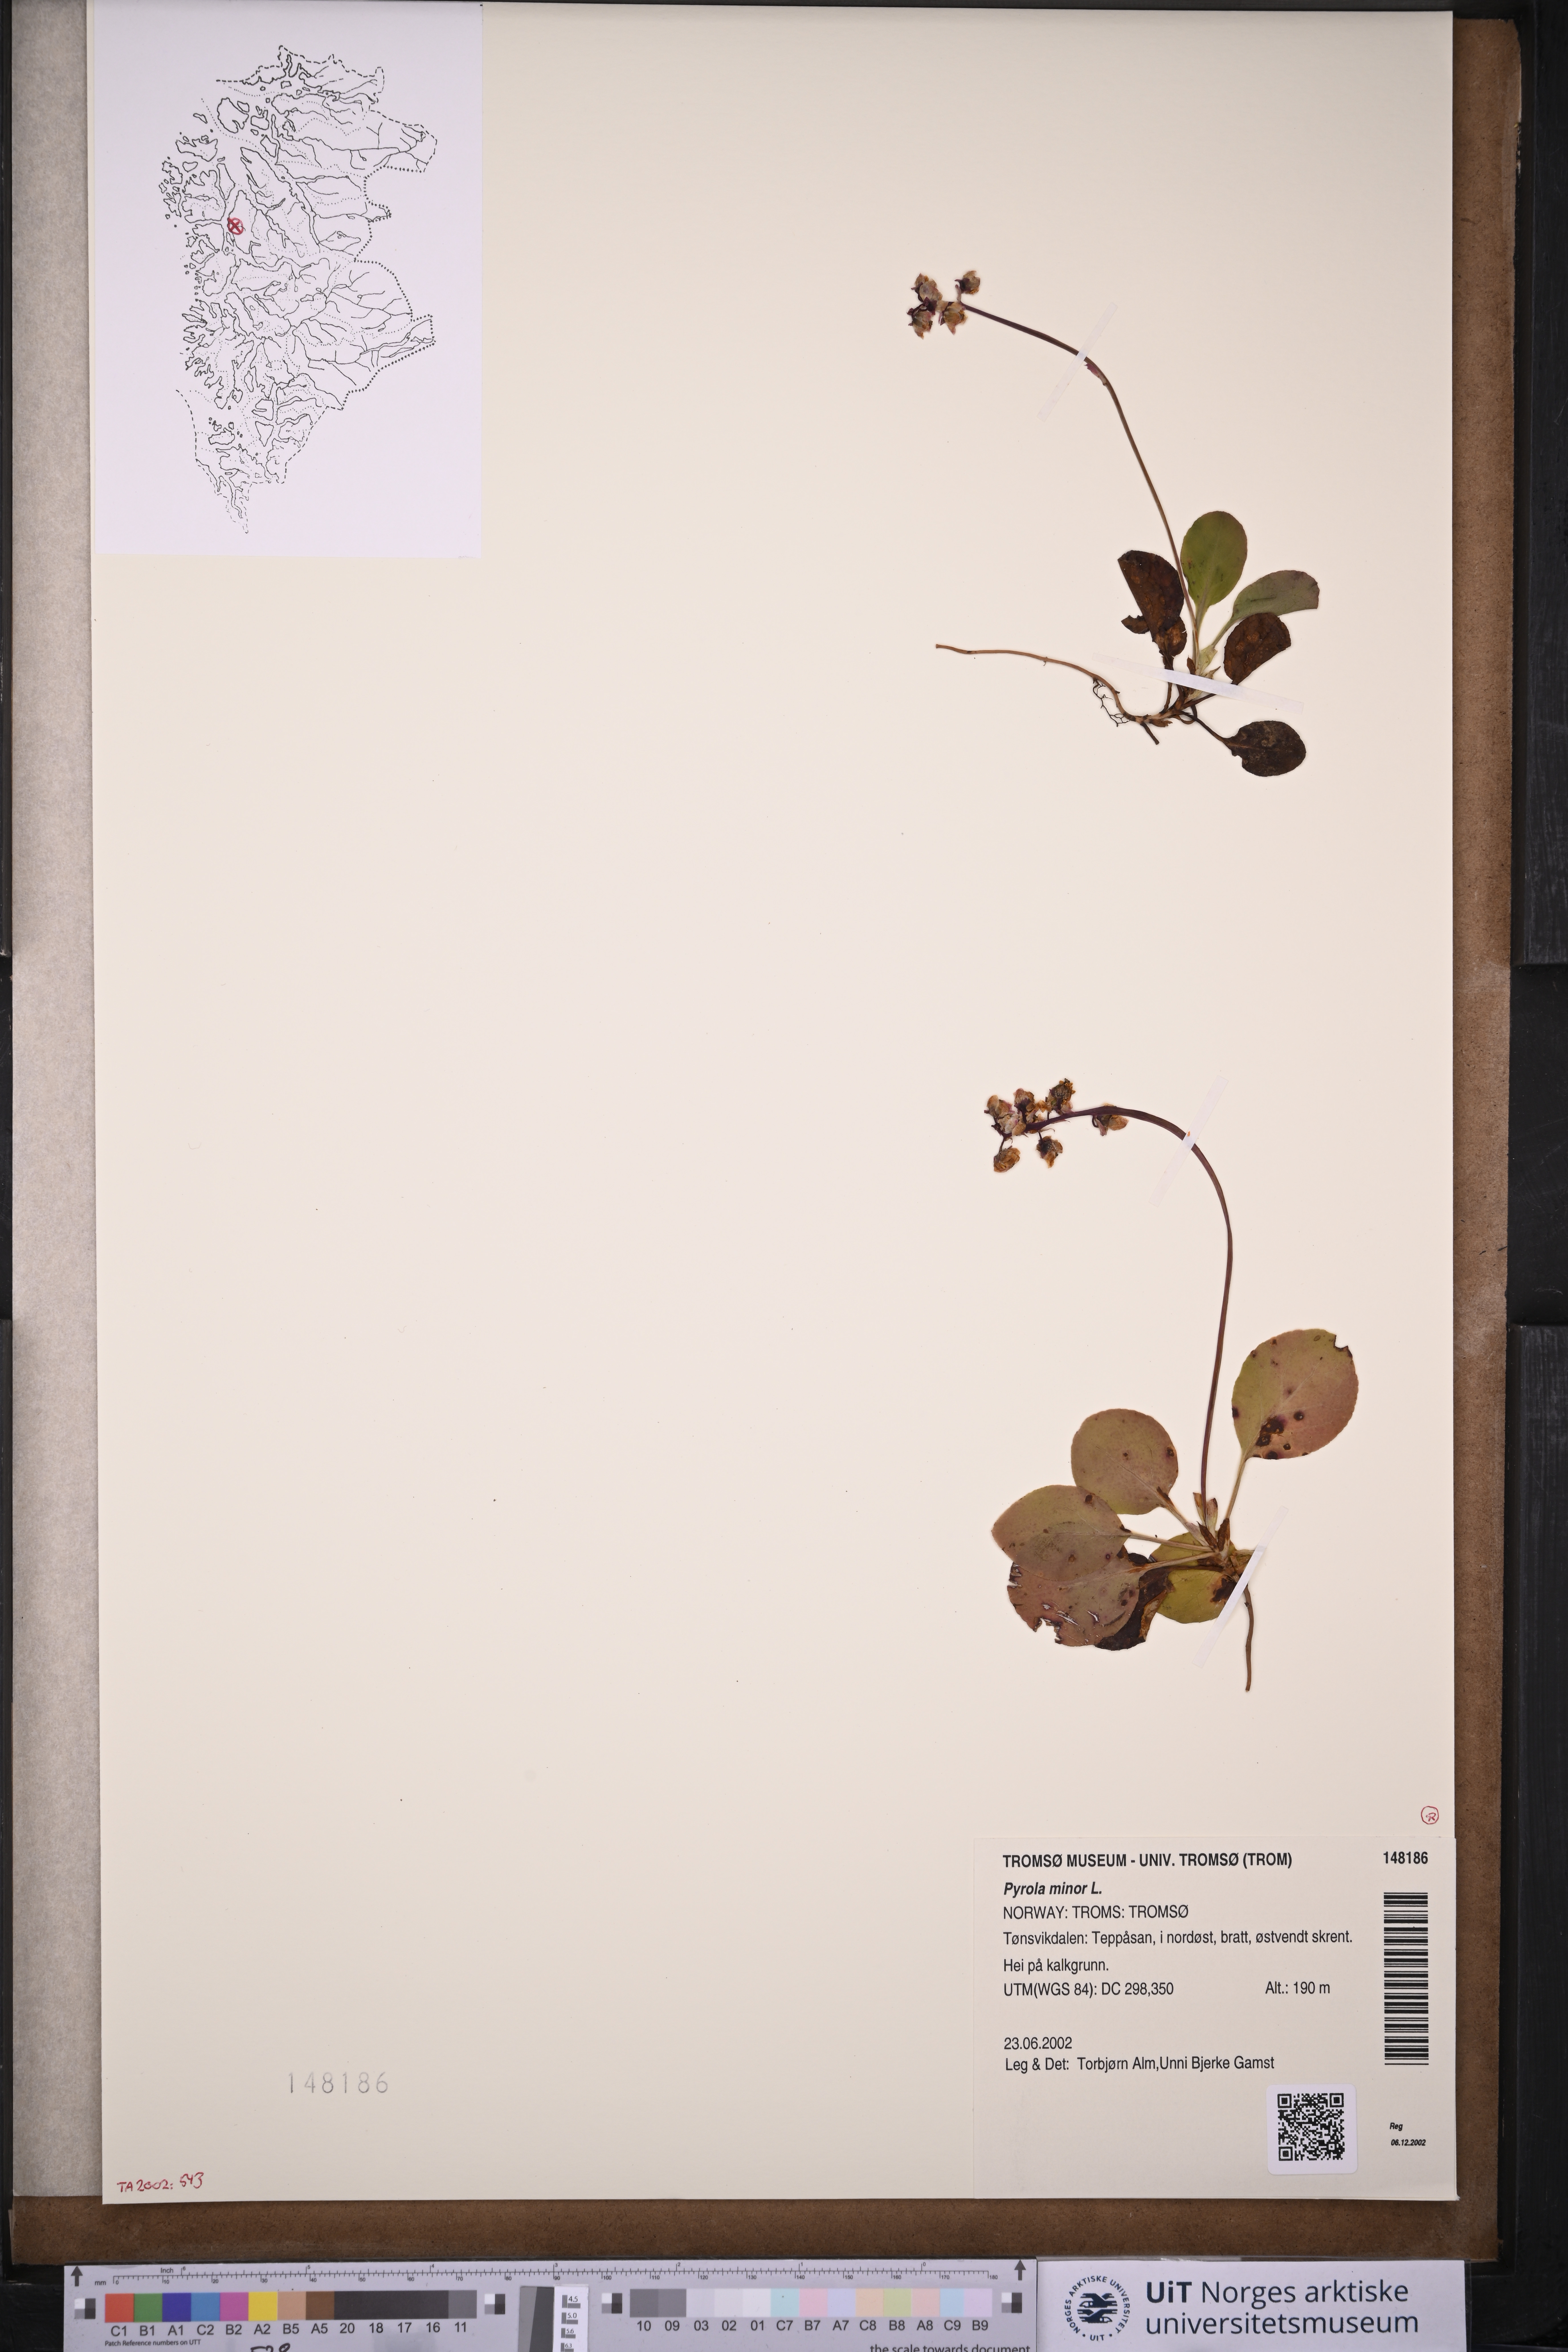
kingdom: Plantae
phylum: Tracheophyta
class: Magnoliopsida
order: Ericales
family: Ericaceae
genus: Pyrola
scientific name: Pyrola minor
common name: Common wintergreen
